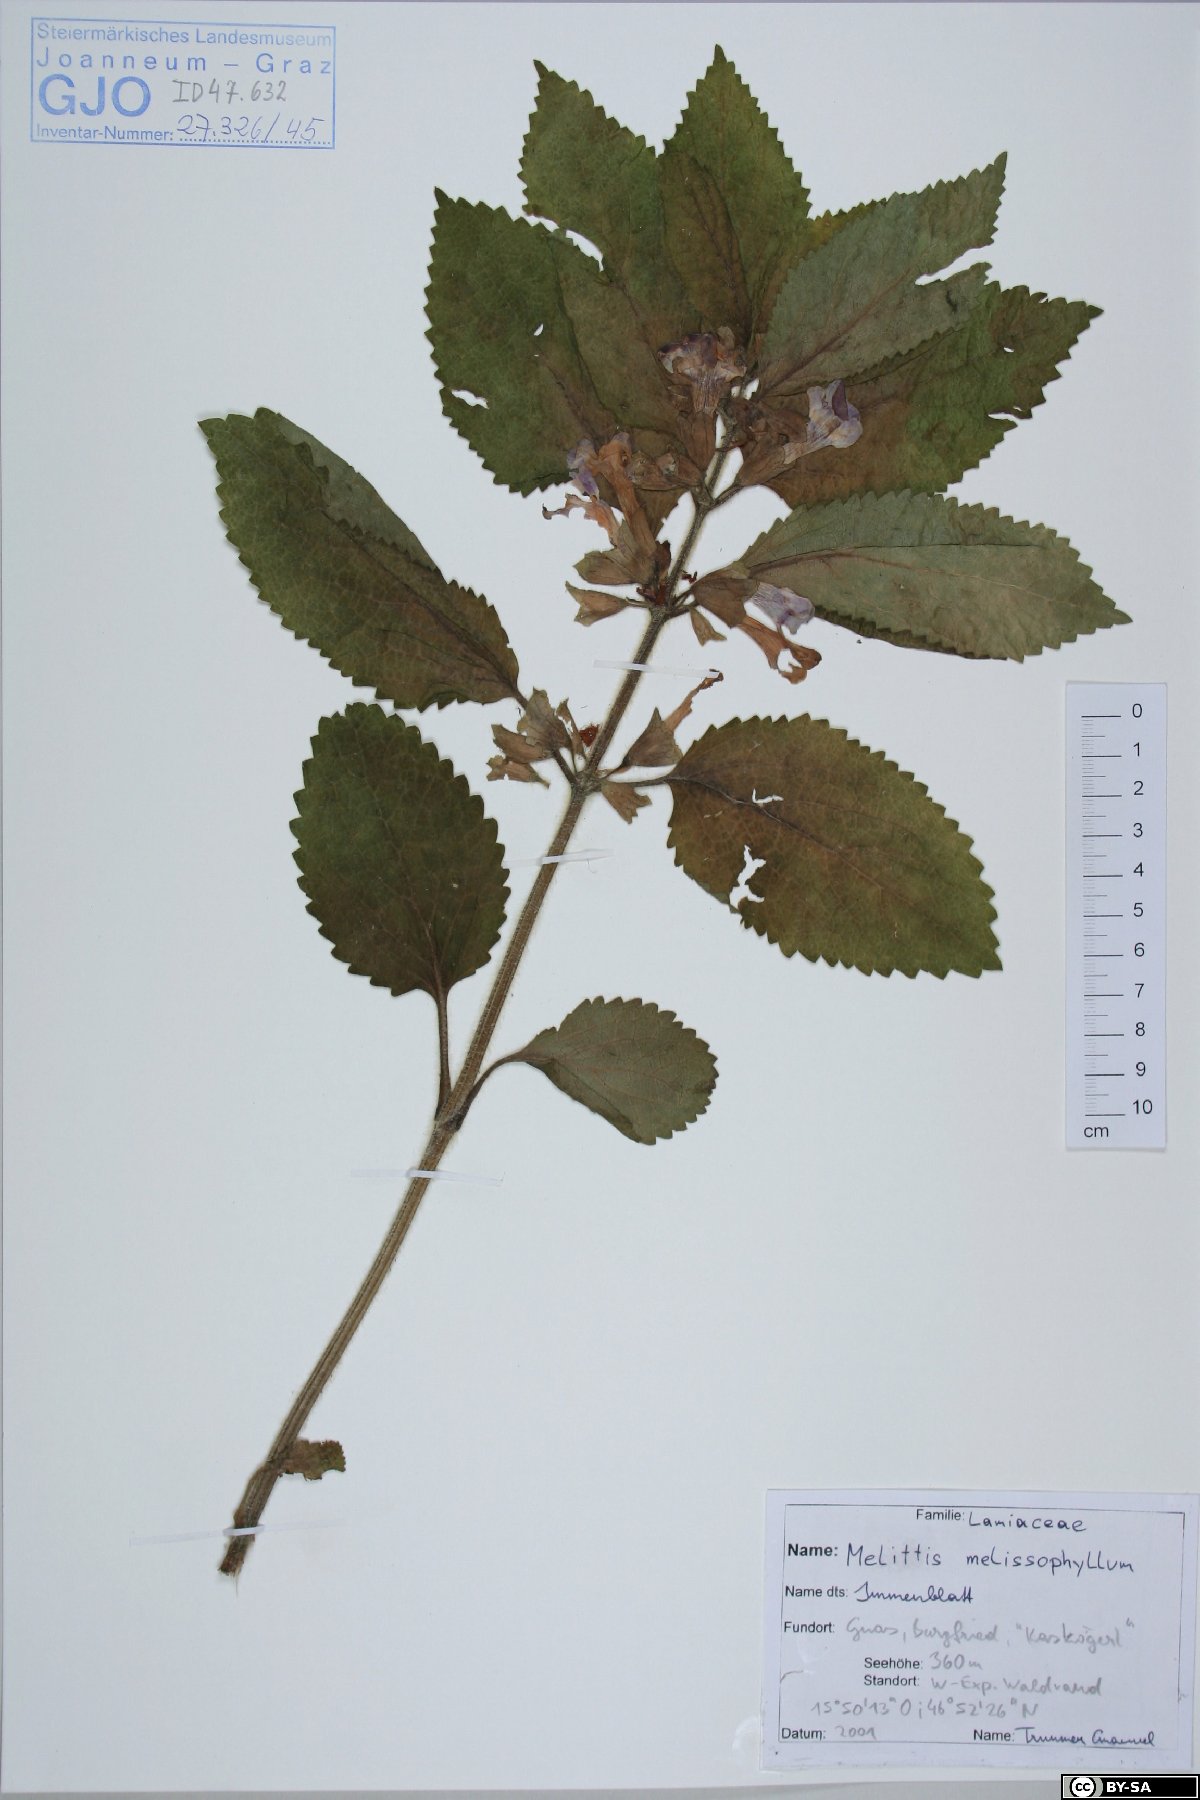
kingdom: Plantae
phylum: Tracheophyta
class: Magnoliopsida
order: Lamiales
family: Lamiaceae
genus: Melittis
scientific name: Melittis melissophyllum
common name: Bastard balm
